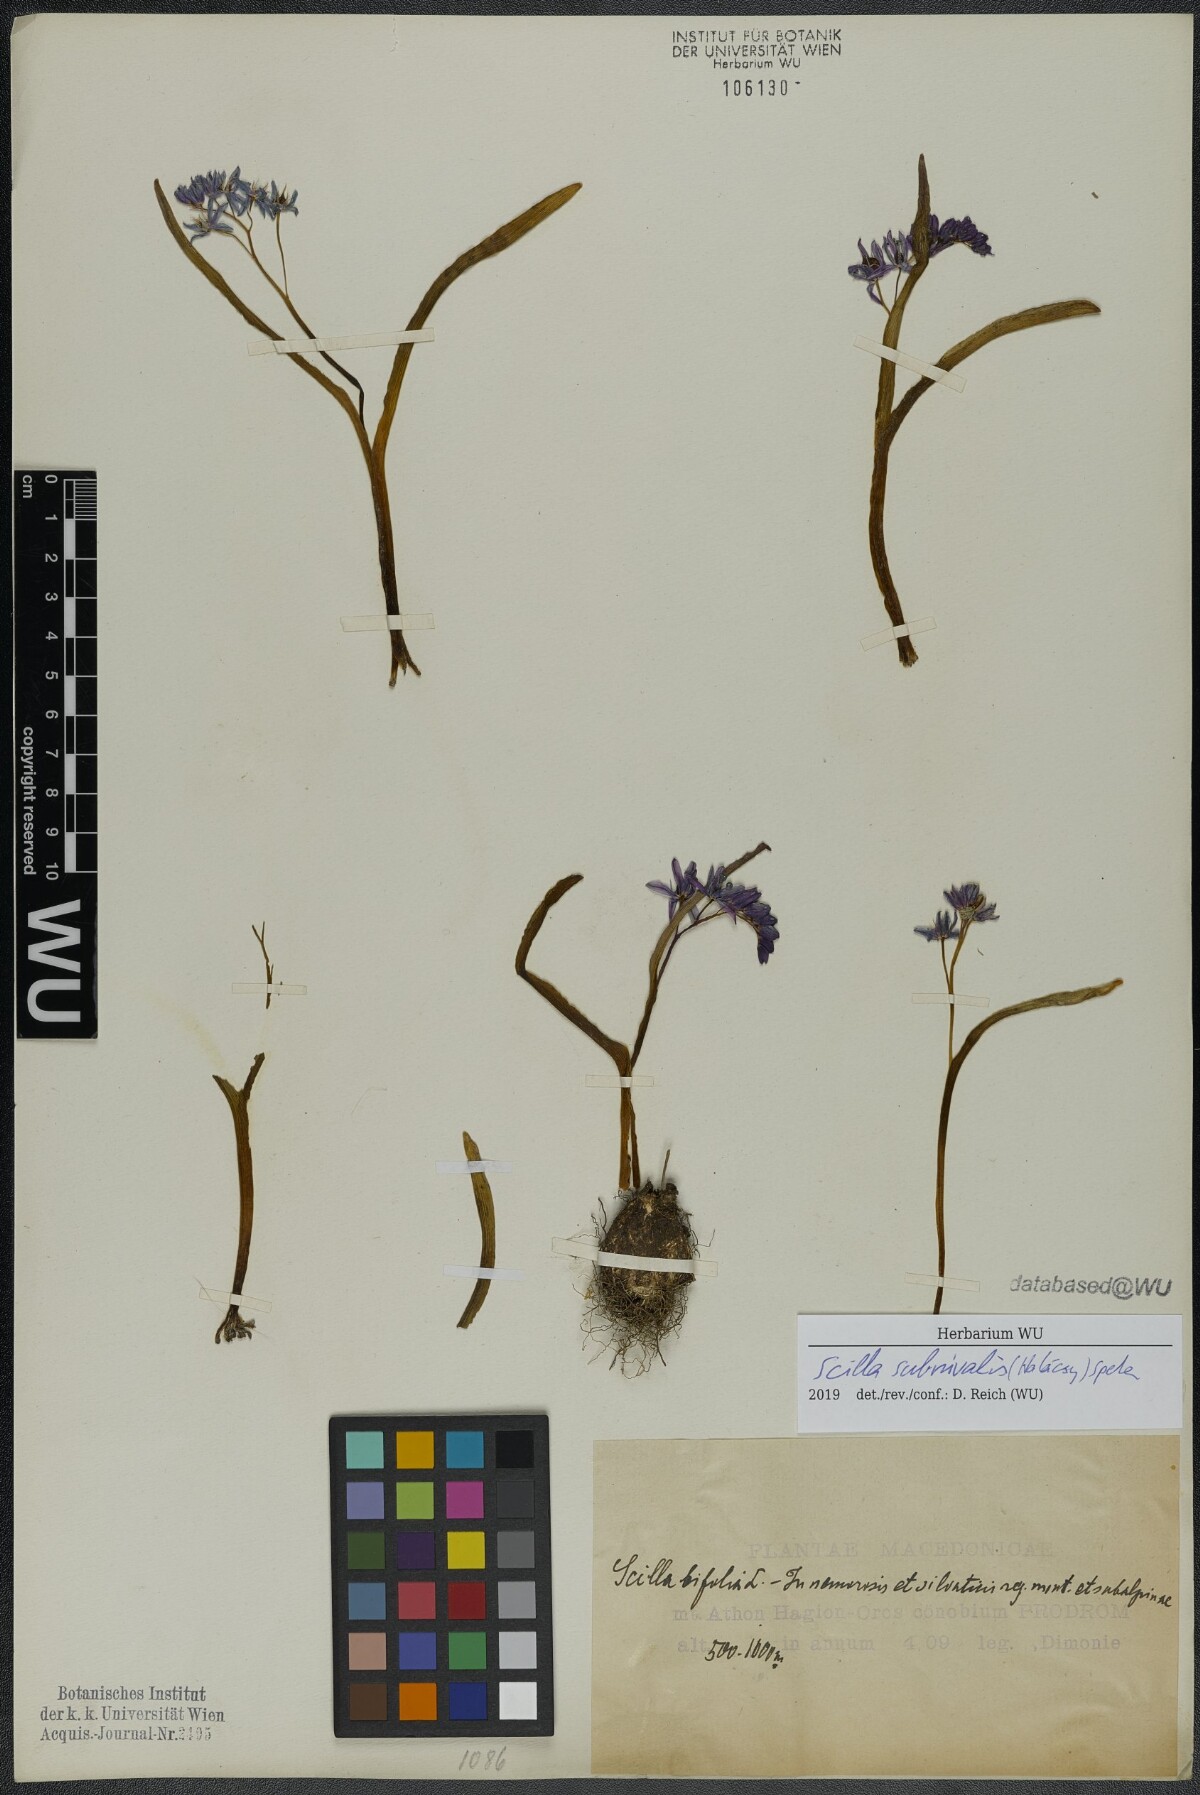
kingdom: Plantae
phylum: Tracheophyta
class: Liliopsida
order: Asparagales
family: Asparagaceae
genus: Scilla
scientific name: Scilla subnivalis
